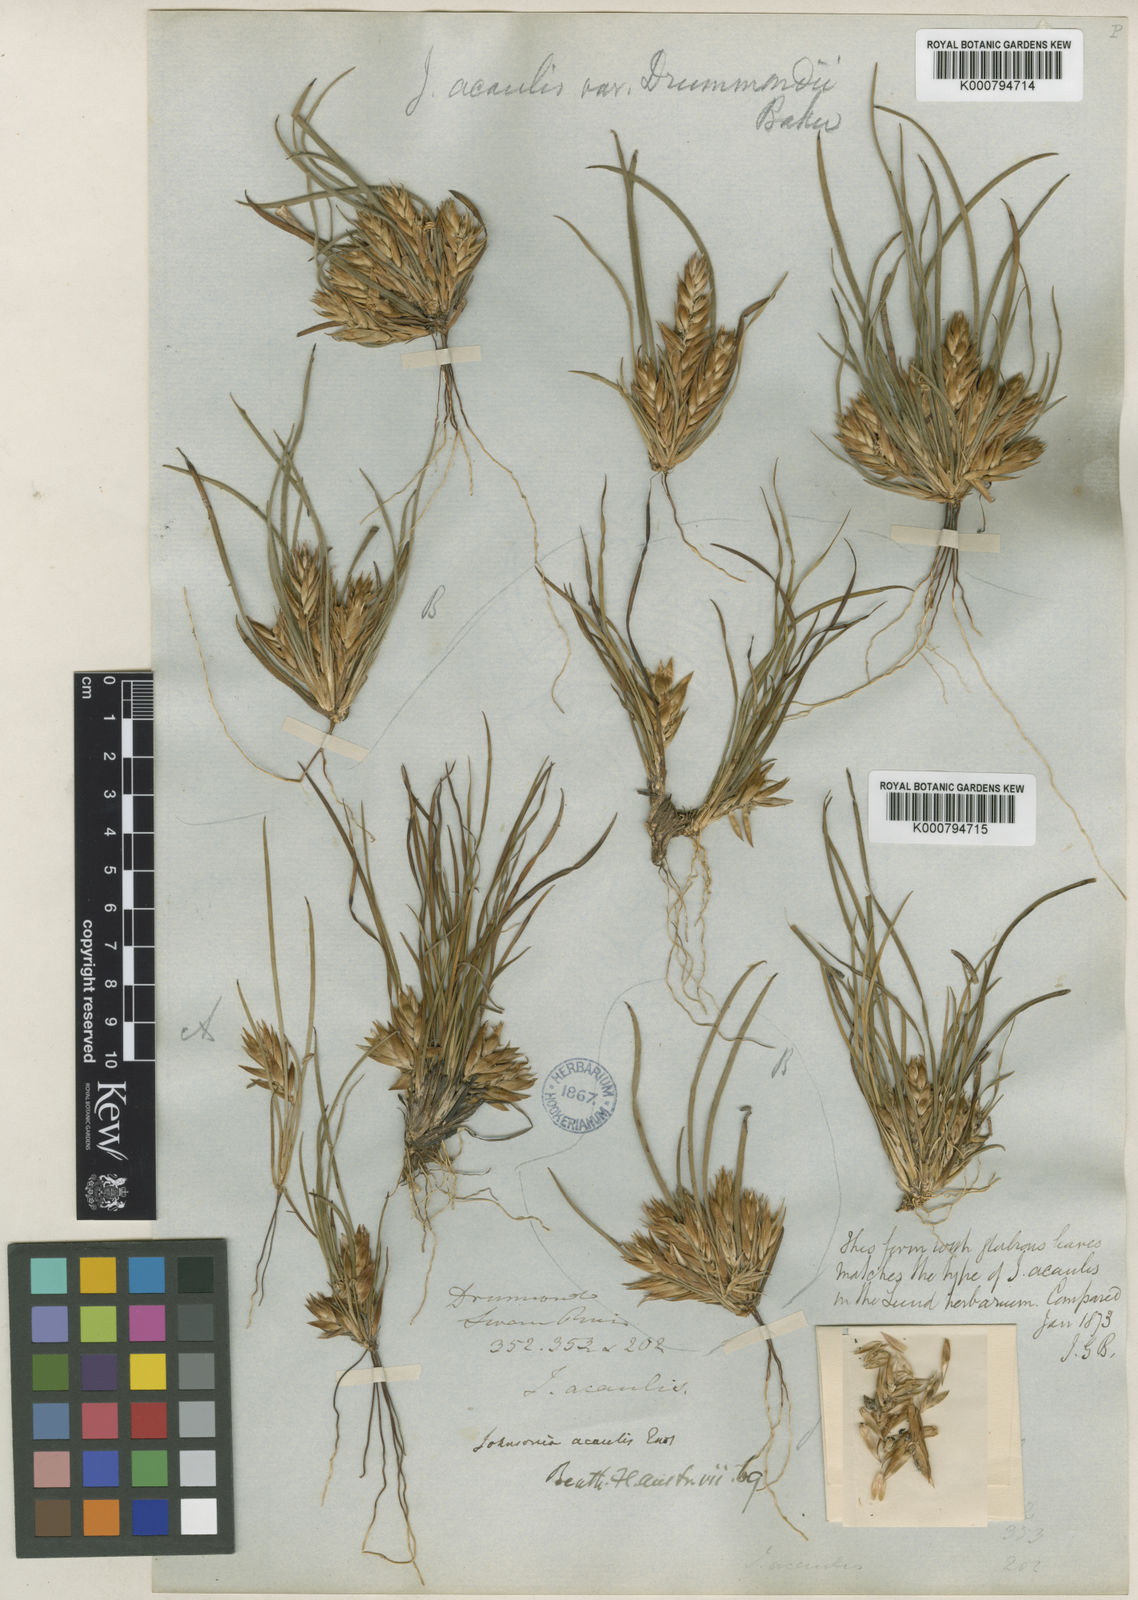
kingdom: Plantae
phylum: Tracheophyta
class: Liliopsida
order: Asparagales
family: Asphodelaceae
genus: Johnsonia
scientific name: Johnsonia acaulis
